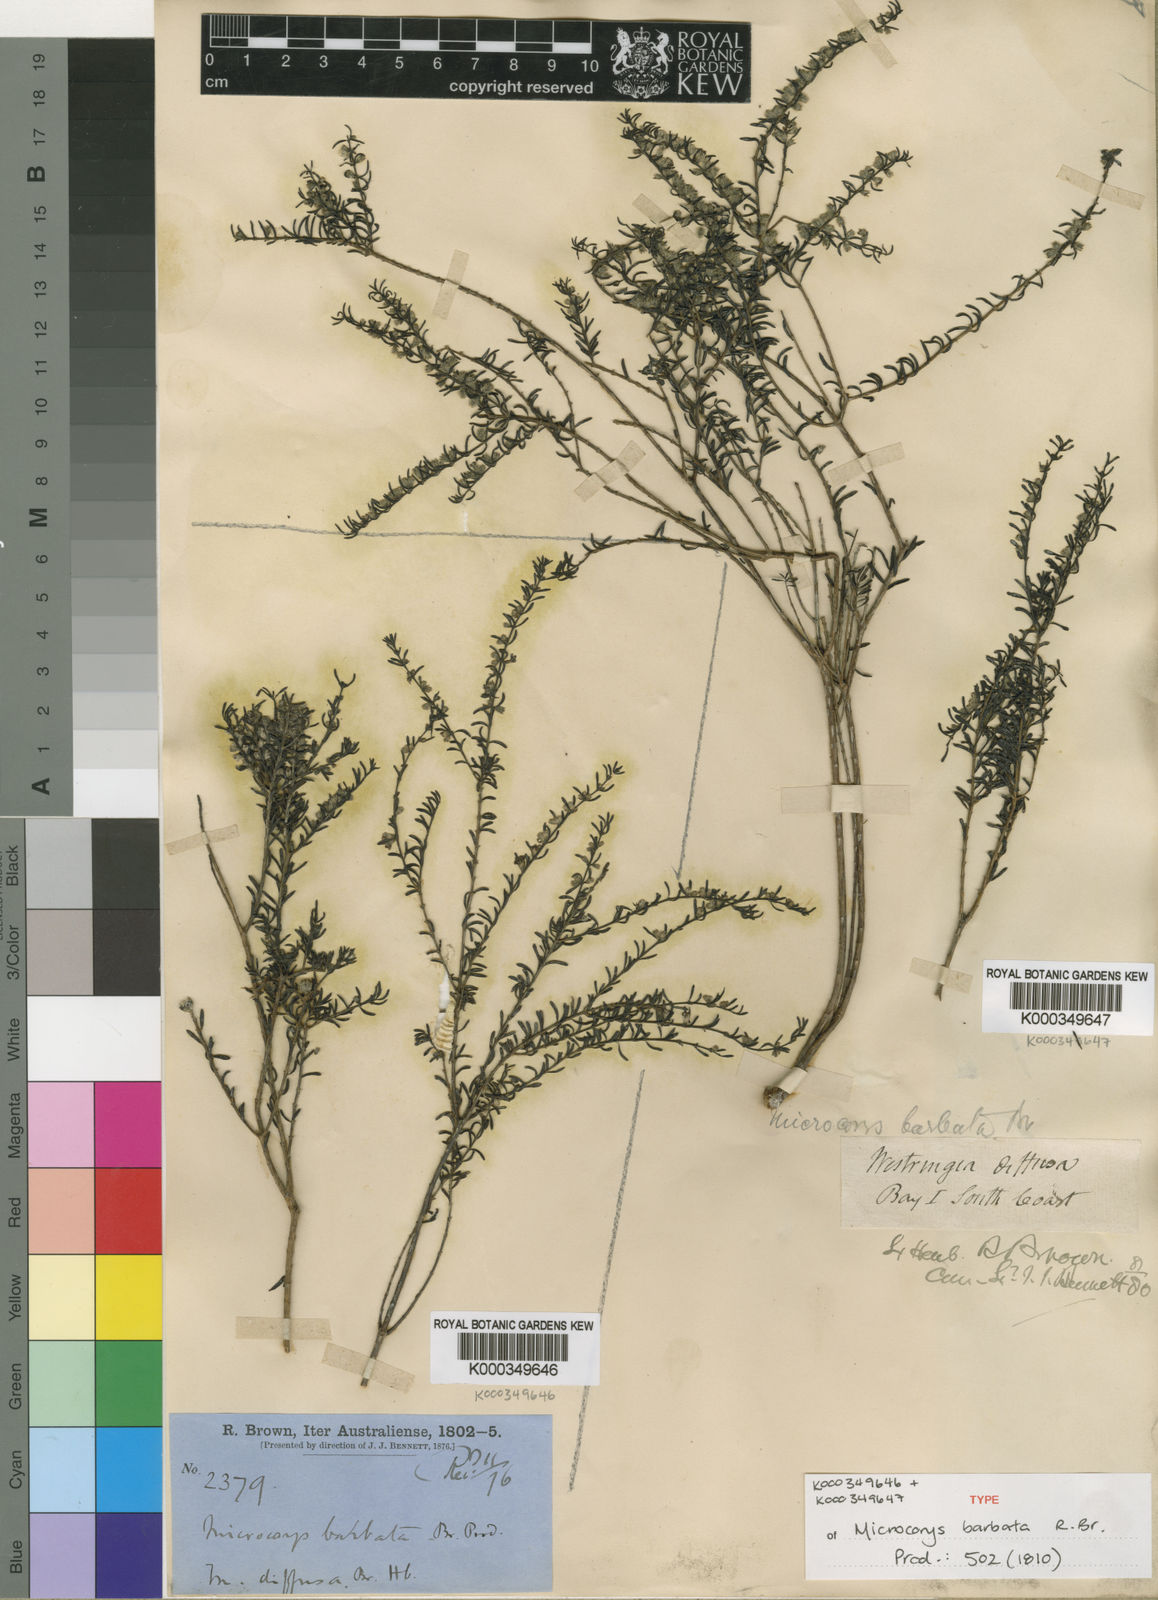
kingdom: Plantae
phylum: Tracheophyta
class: Magnoliopsida
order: Lamiales
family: Lamiaceae
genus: Microcorys
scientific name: Microcorys barbata
